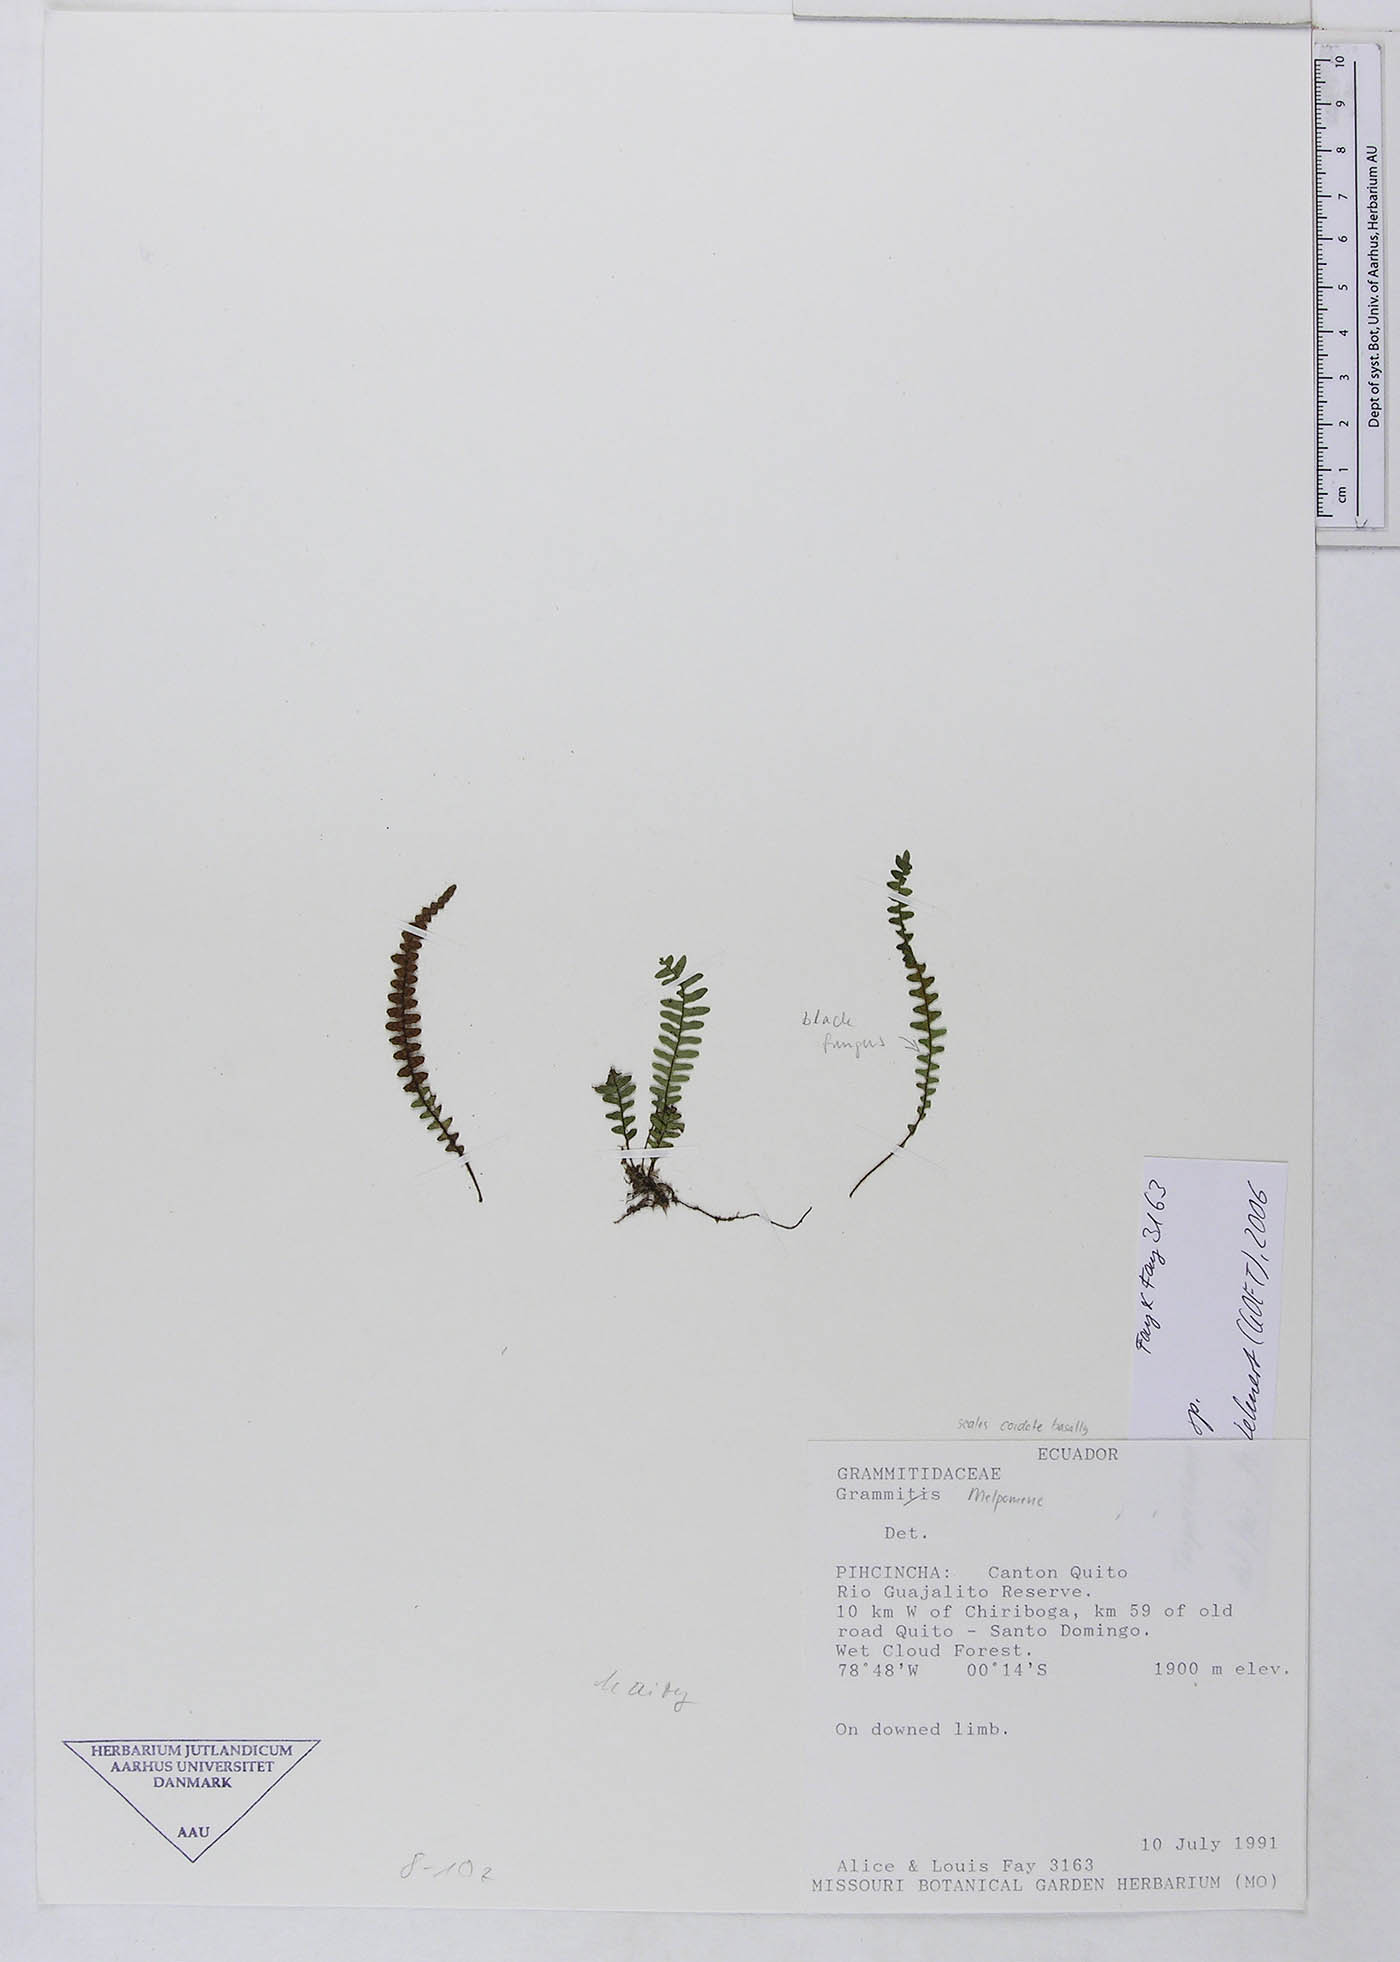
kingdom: Plantae
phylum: Tracheophyta
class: Polypodiopsida
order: Polypodiales
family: Polypodiaceae
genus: Ascogrammitis
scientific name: Ascogrammitis anfractuosa
